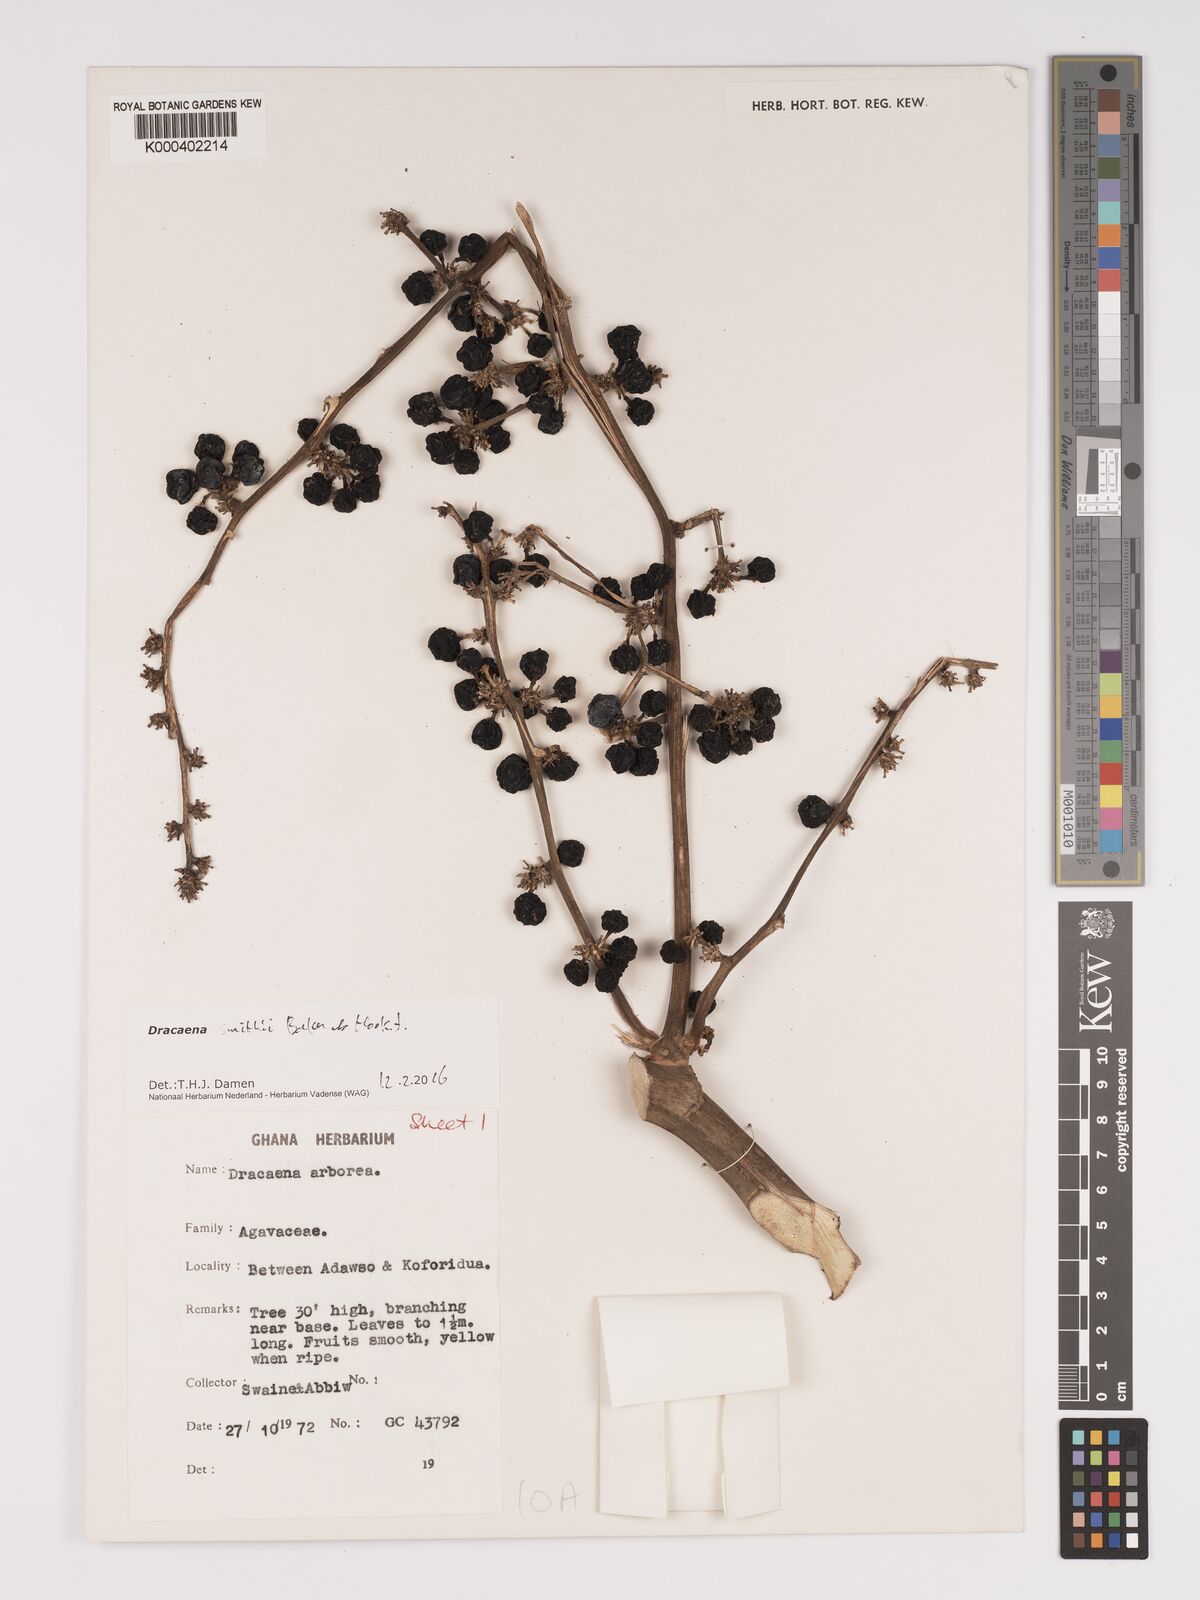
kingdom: Plantae
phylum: Tracheophyta
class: Liliopsida
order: Asparagales
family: Asparagaceae
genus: Dracaena
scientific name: Dracaena fragrans
